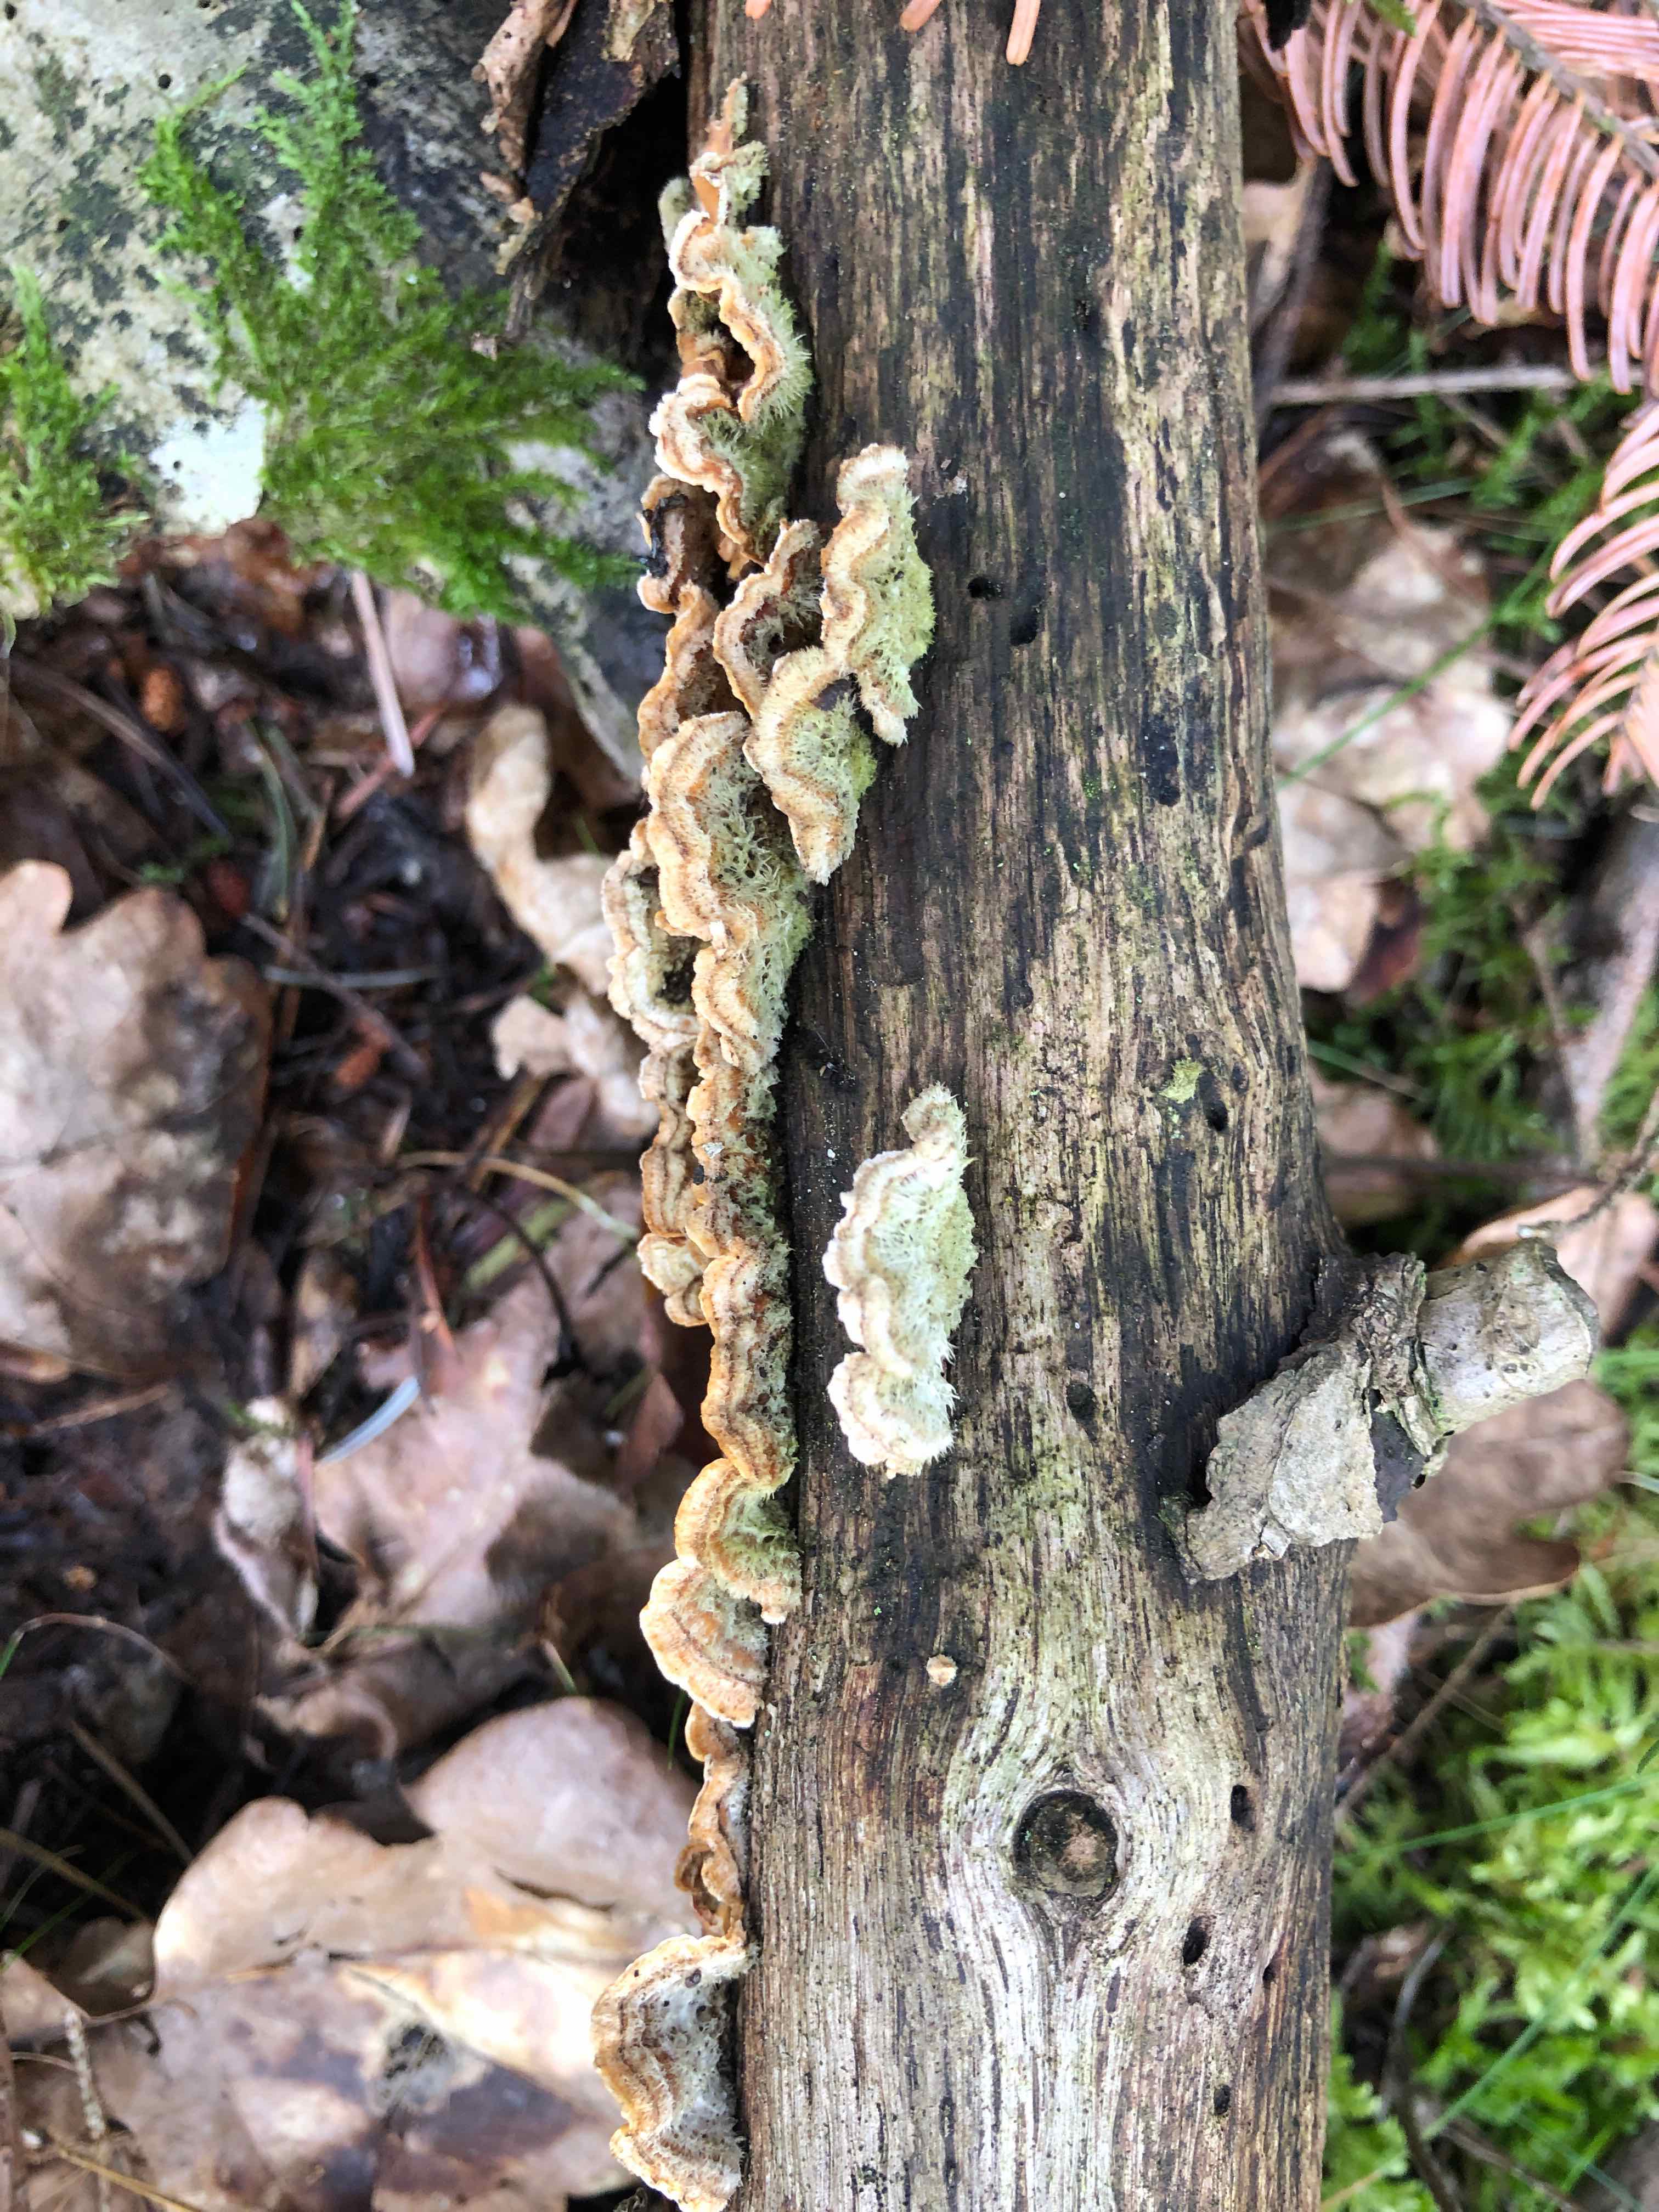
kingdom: Fungi
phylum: Basidiomycota
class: Agaricomycetes
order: Russulales
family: Stereaceae
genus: Stereum
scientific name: Stereum hirsutum
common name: håret lædersvamp
